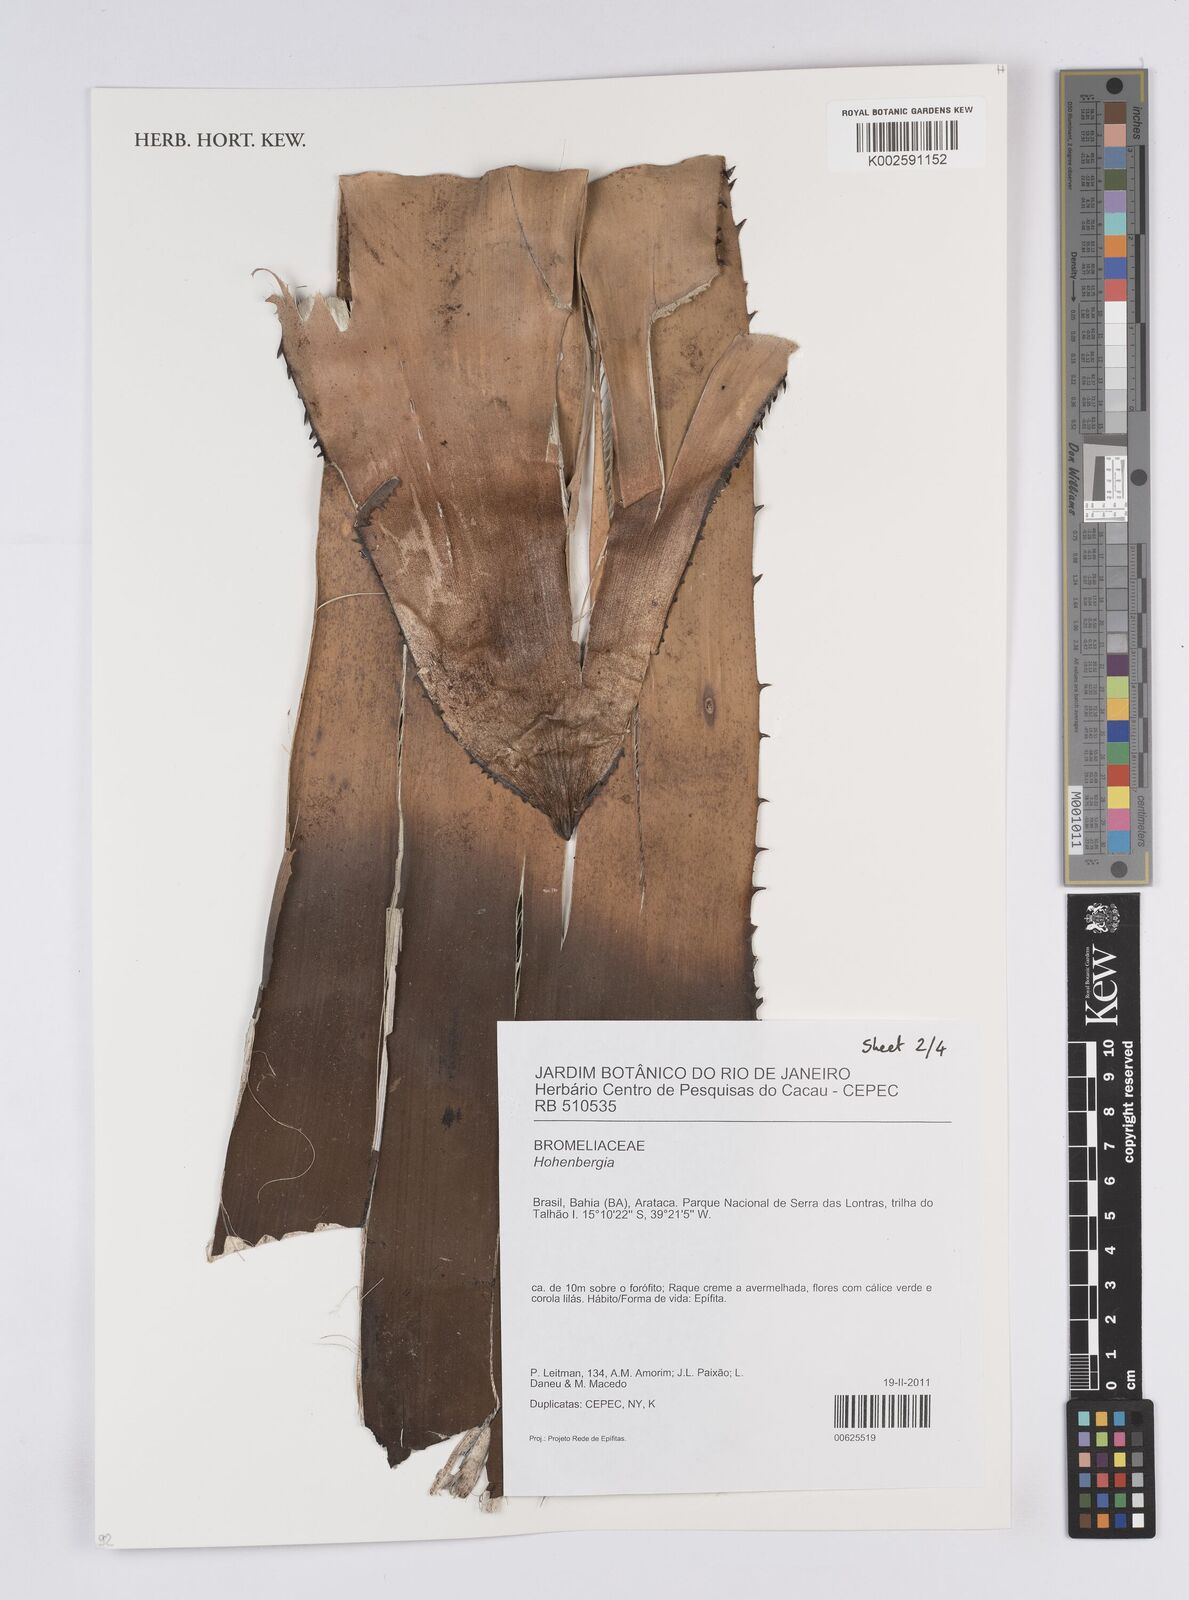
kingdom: Plantae
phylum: Tracheophyta
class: Liliopsida
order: Poales
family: Bromeliaceae
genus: Hohenbergia
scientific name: Hohenbergia
